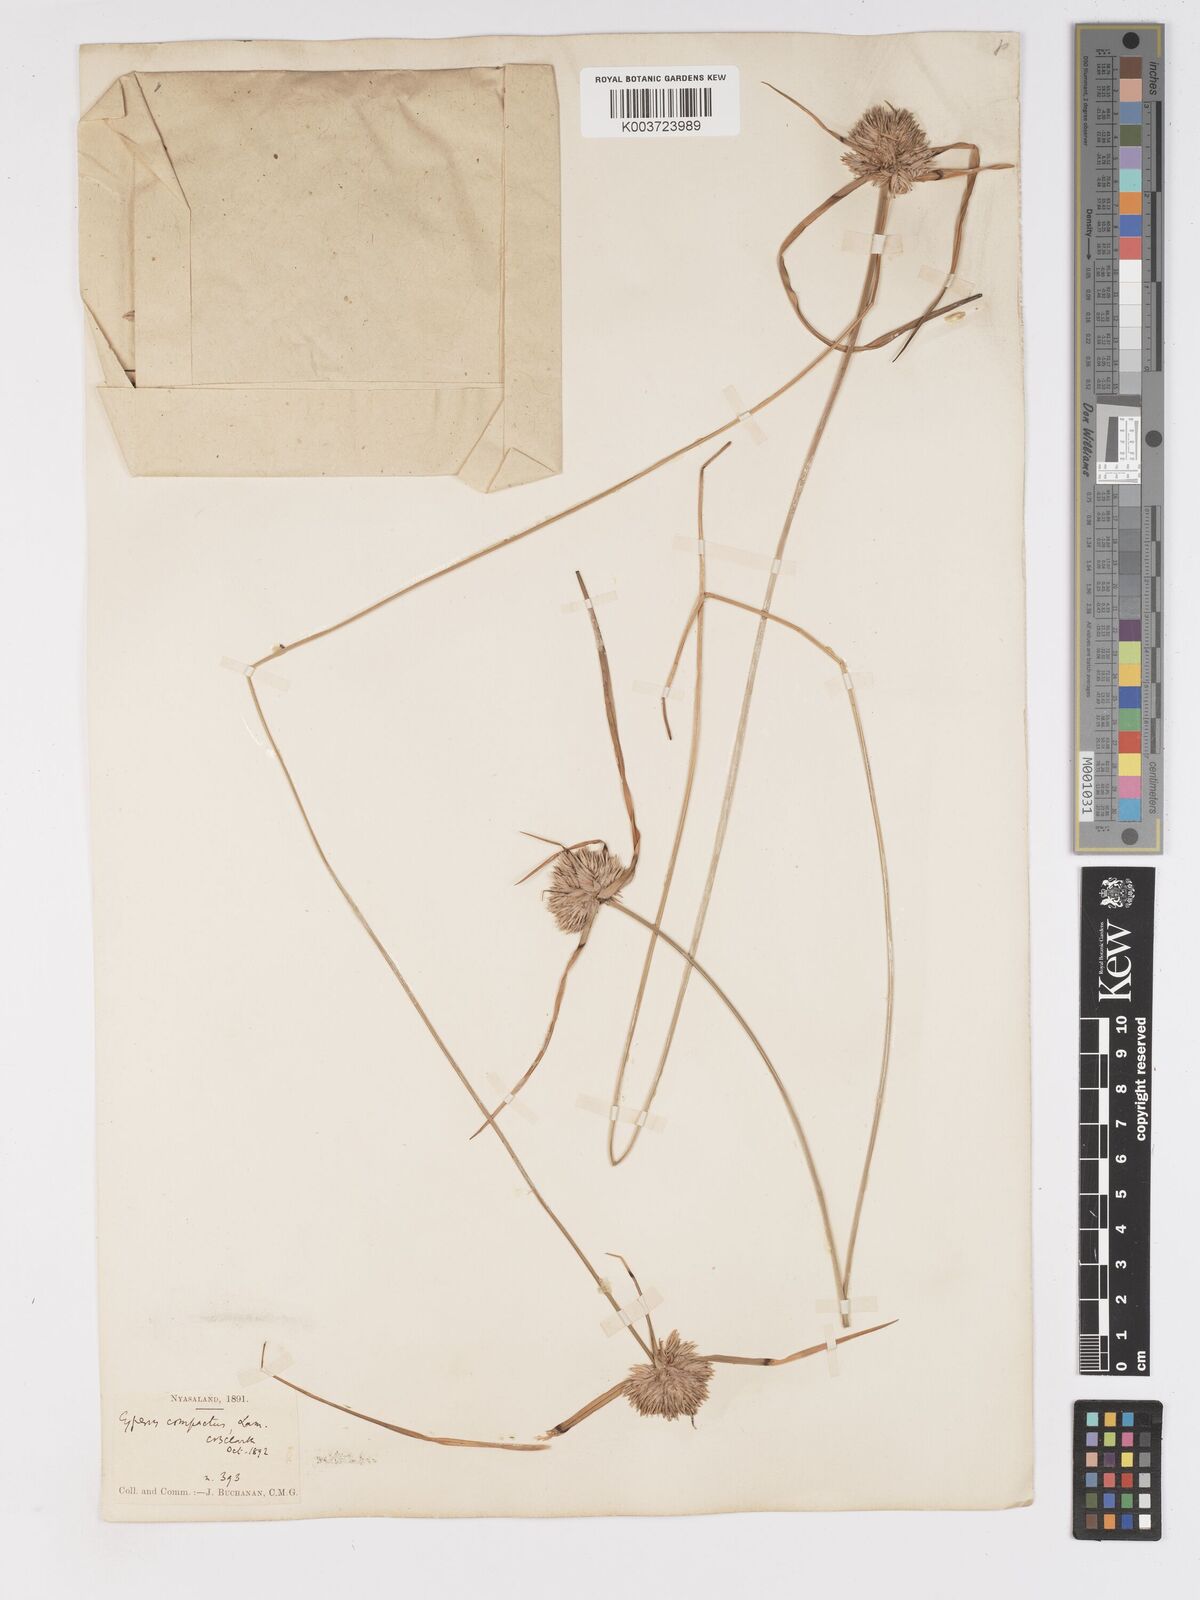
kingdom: Plantae
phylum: Tracheophyta
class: Liliopsida
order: Poales
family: Cyperaceae
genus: Cyperus
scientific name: Cyperus niveus
